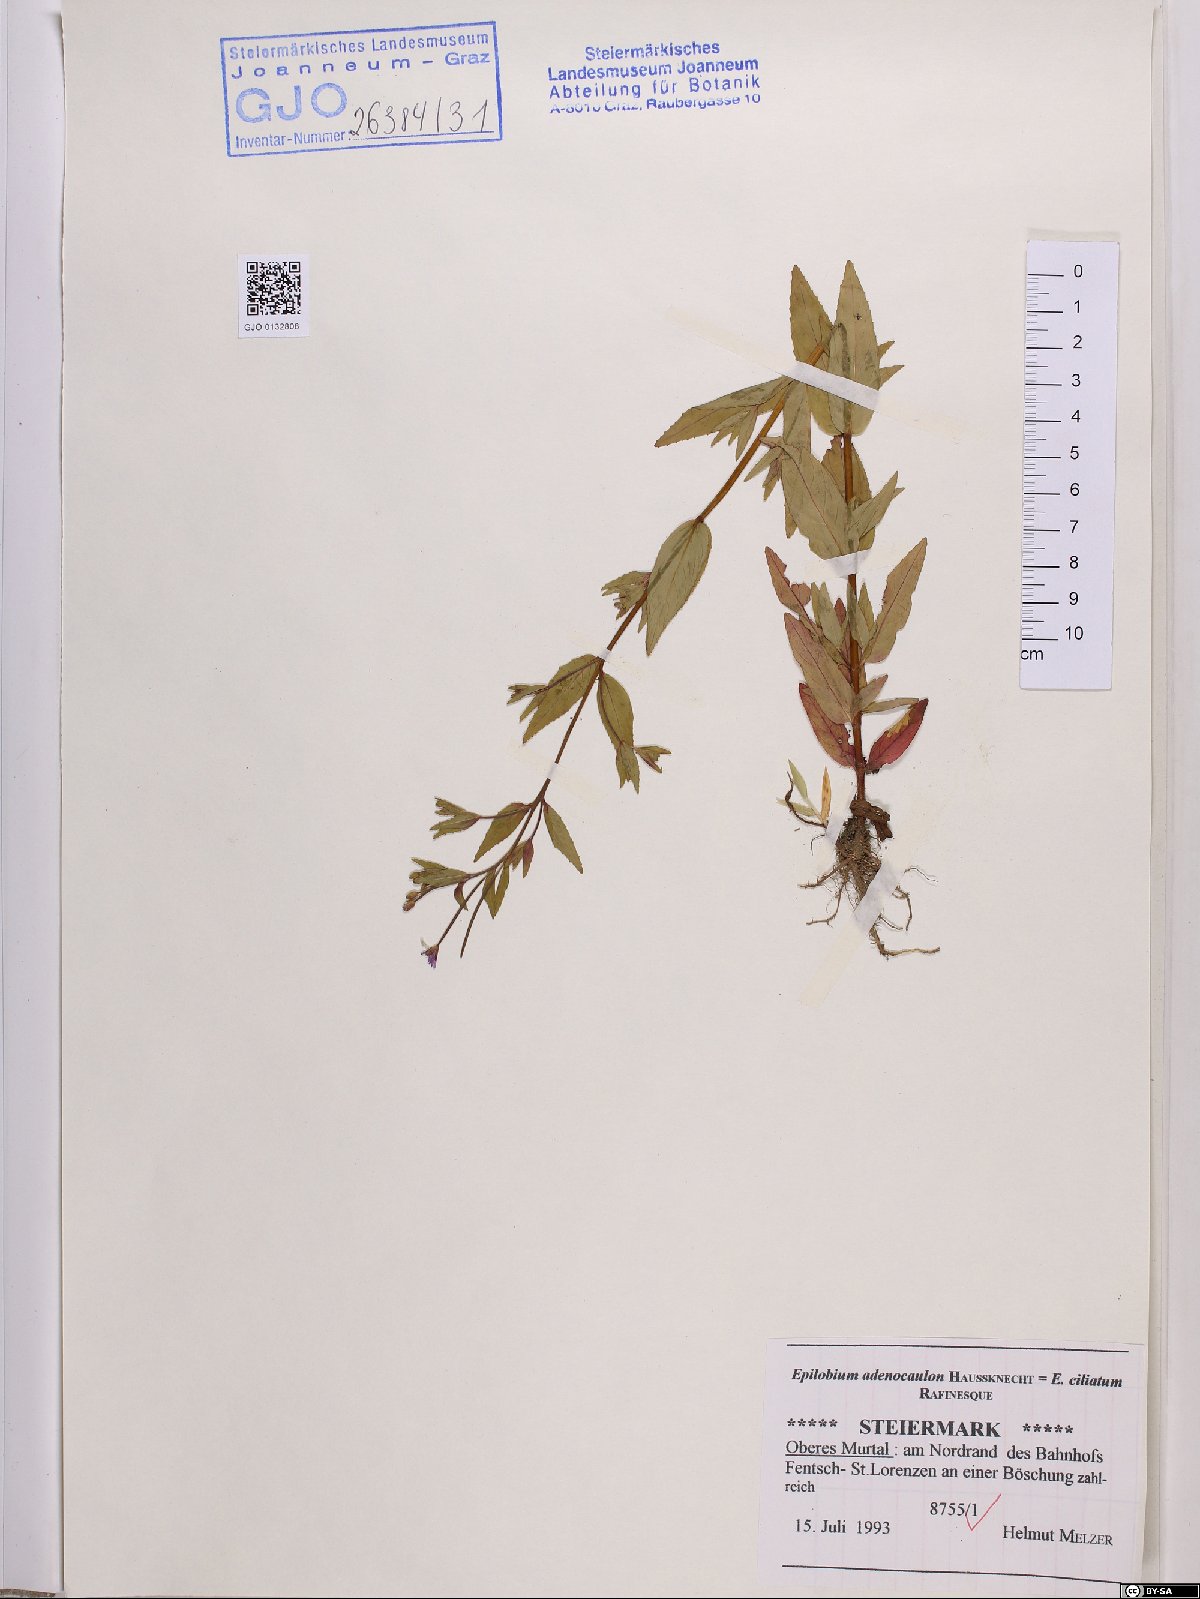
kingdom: Plantae
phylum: Tracheophyta
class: Magnoliopsida
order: Myrtales
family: Onagraceae
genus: Epilobium
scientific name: Epilobium ciliatum
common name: American willowherb
